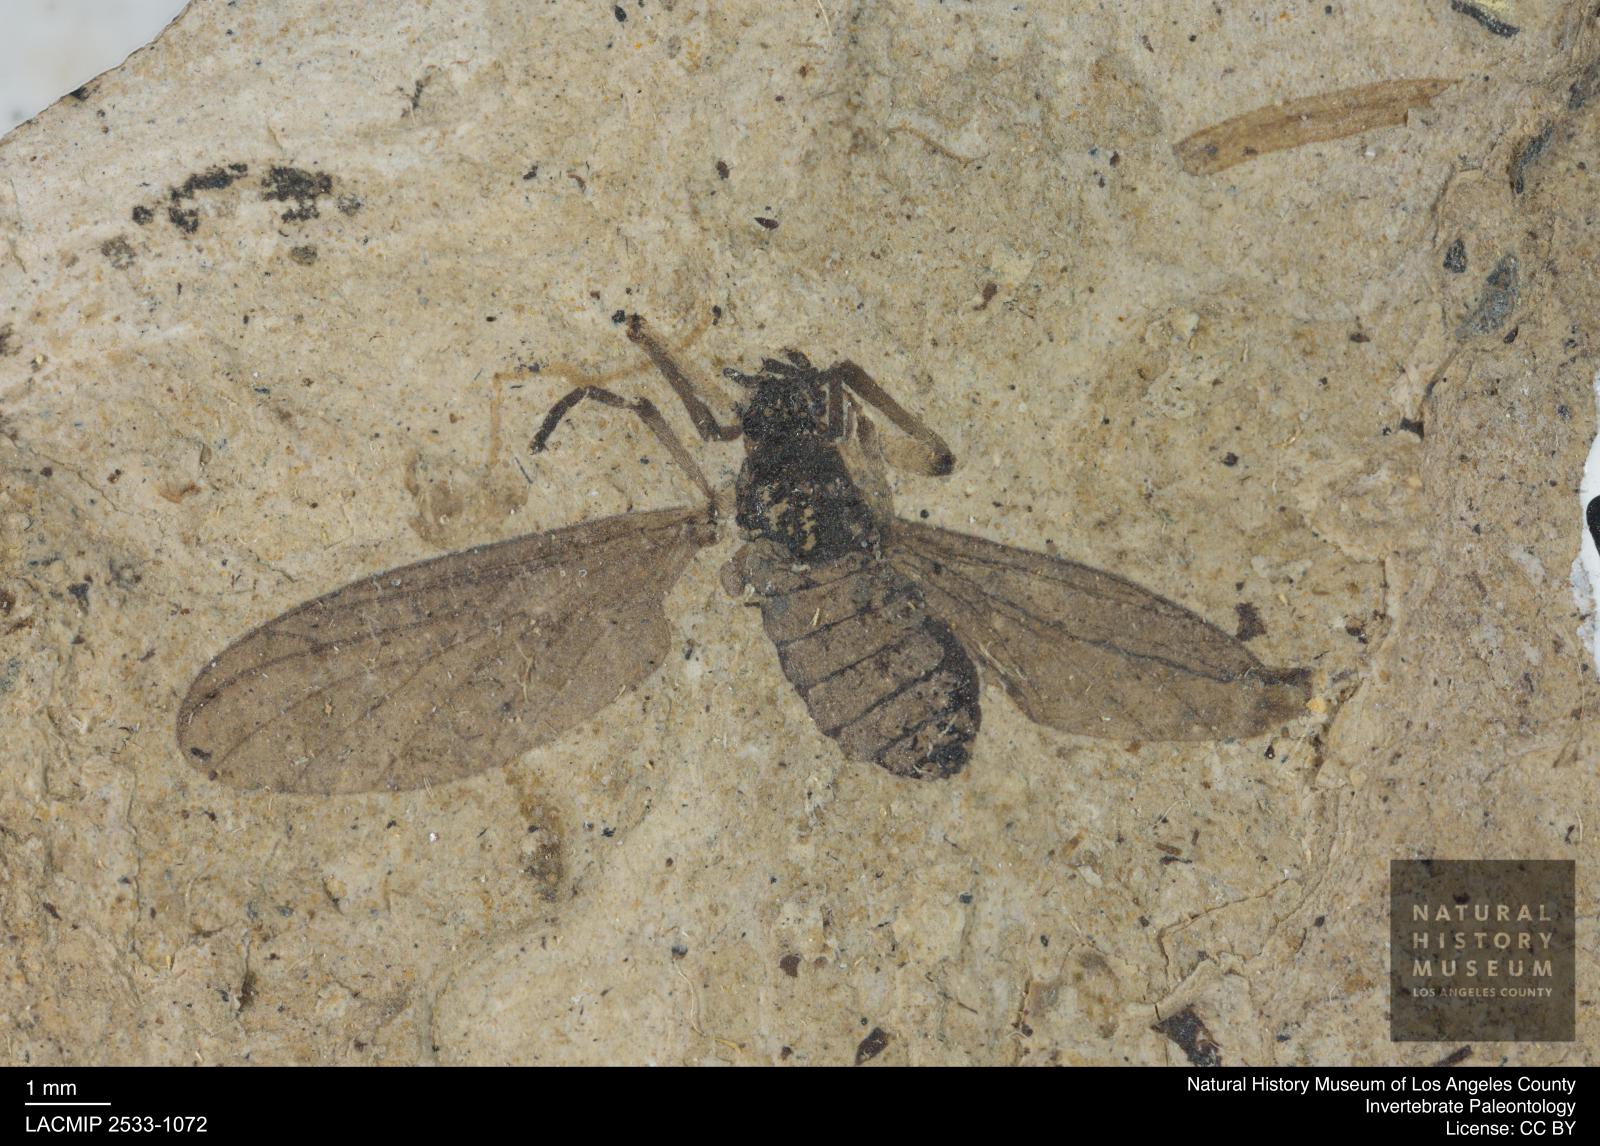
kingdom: Animalia
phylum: Arthropoda
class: Insecta
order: Diptera
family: Bibionidae
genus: Plecia
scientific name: Plecia stygia
